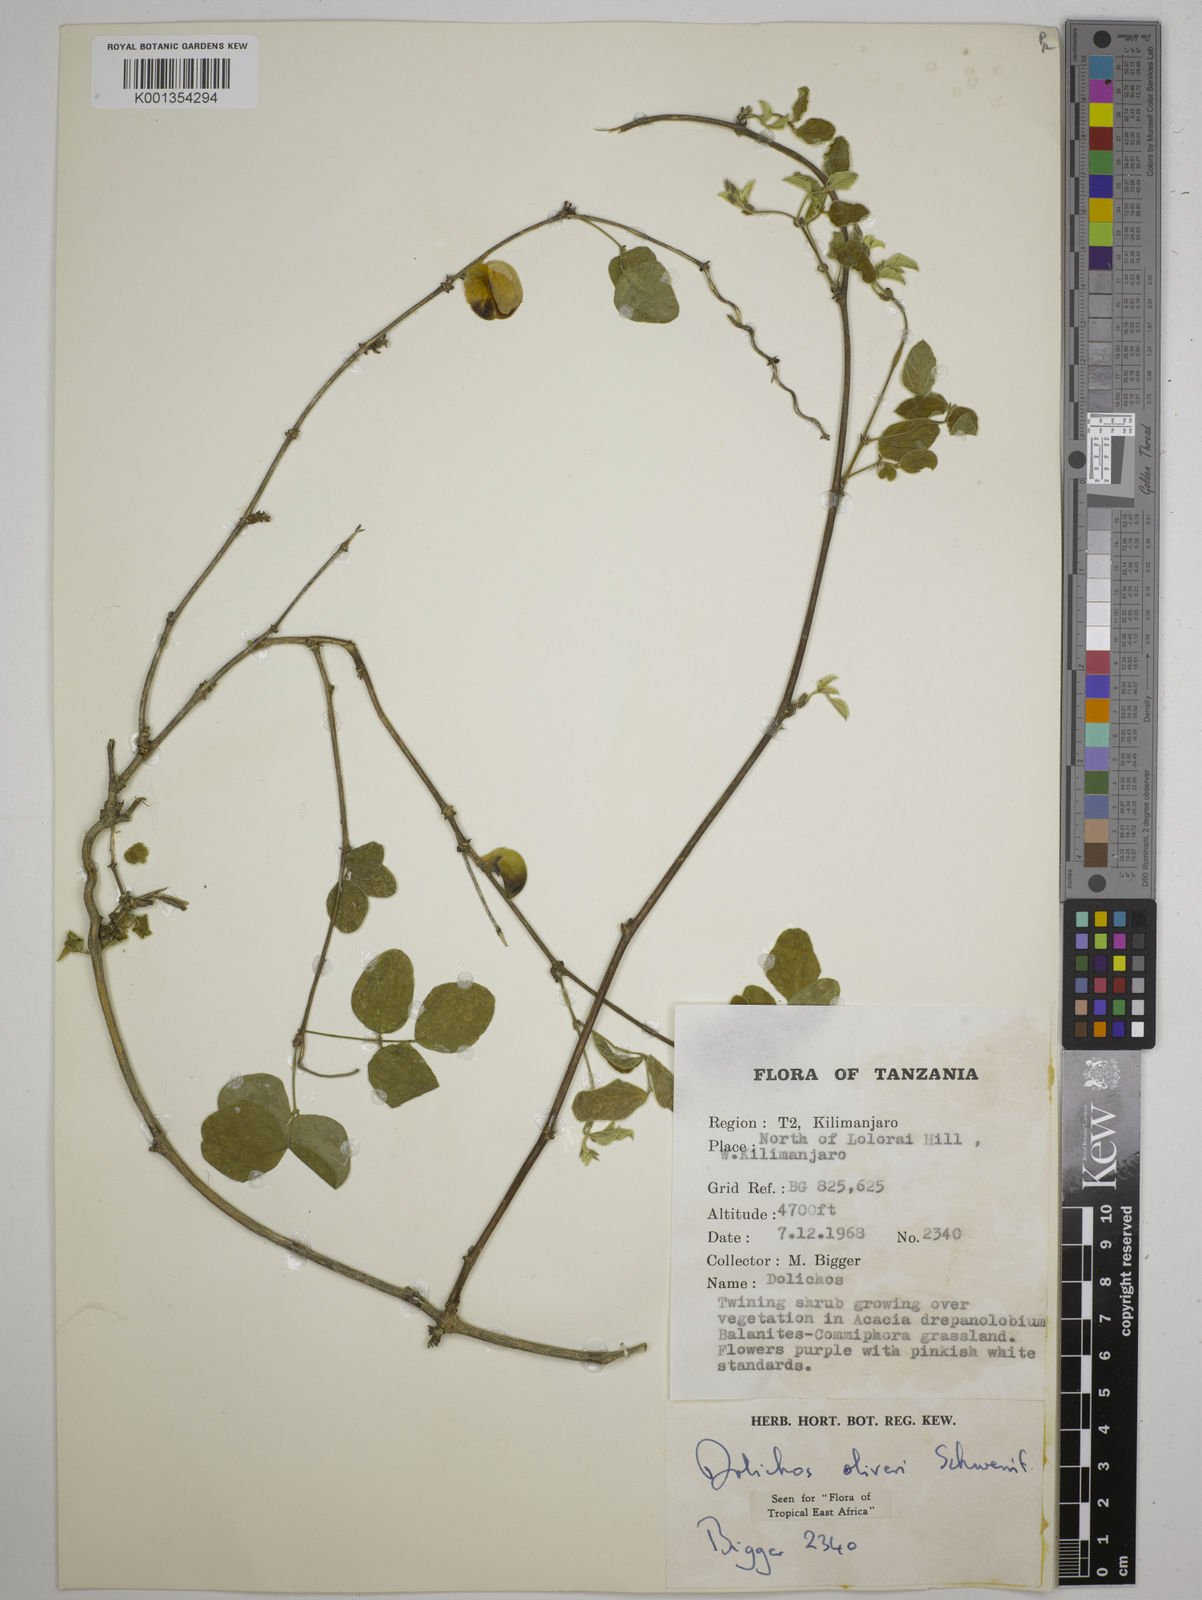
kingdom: Plantae
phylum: Tracheophyta
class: Magnoliopsida
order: Fabales
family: Fabaceae
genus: Dolichos
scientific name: Dolichos oliveri
